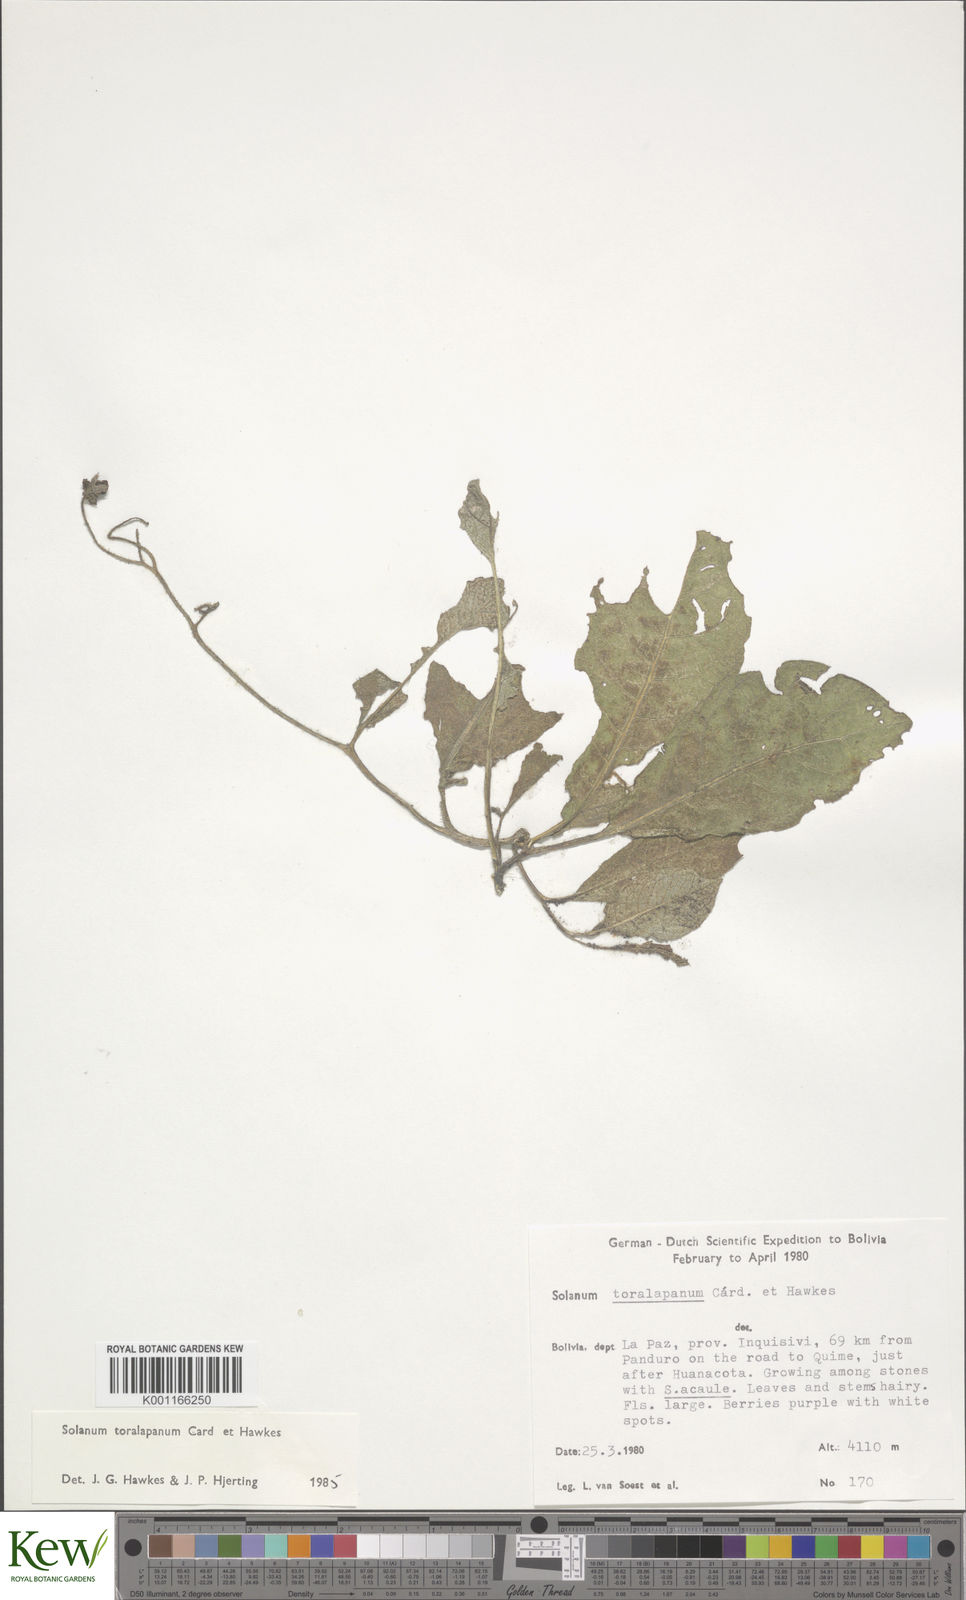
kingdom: Plantae
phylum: Tracheophyta
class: Magnoliopsida
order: Solanales
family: Solanaceae
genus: Solanum
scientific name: Solanum boliviense
